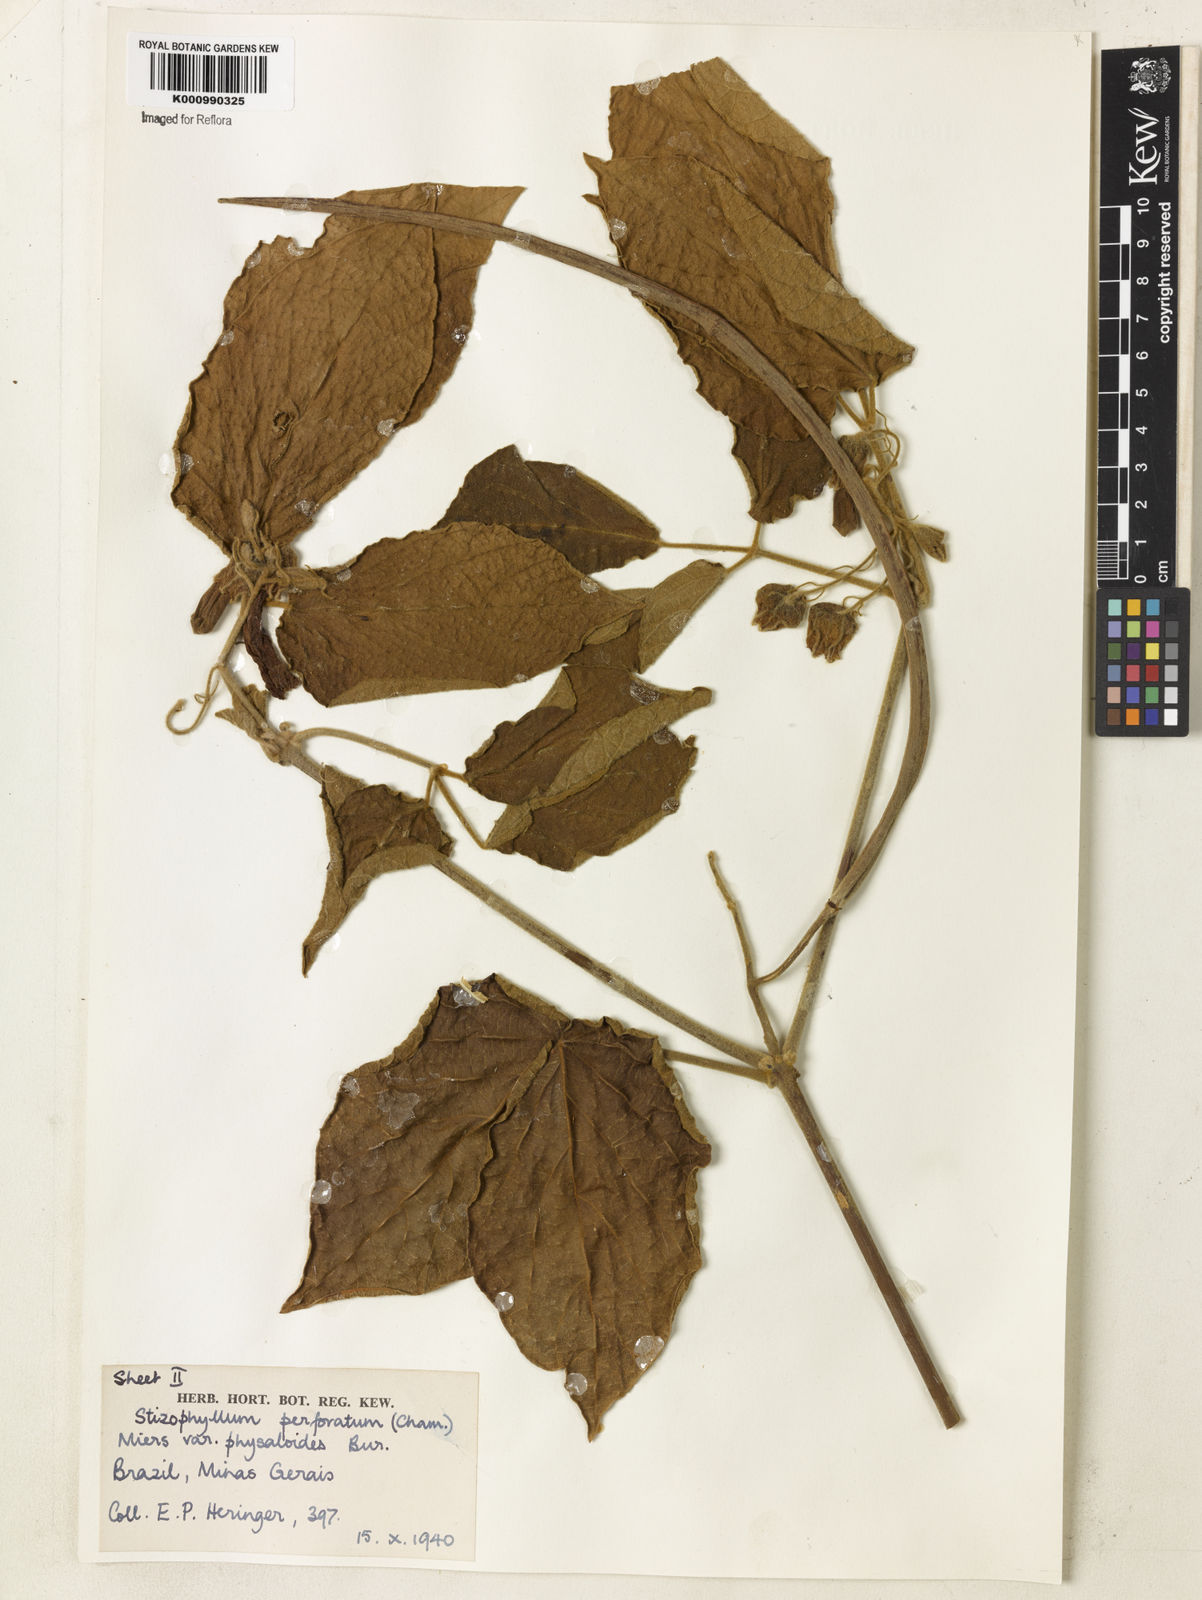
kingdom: Plantae
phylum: Tracheophyta
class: Magnoliopsida
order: Lamiales
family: Bignoniaceae
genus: Stizophyllum
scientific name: Stizophyllum perforatum
